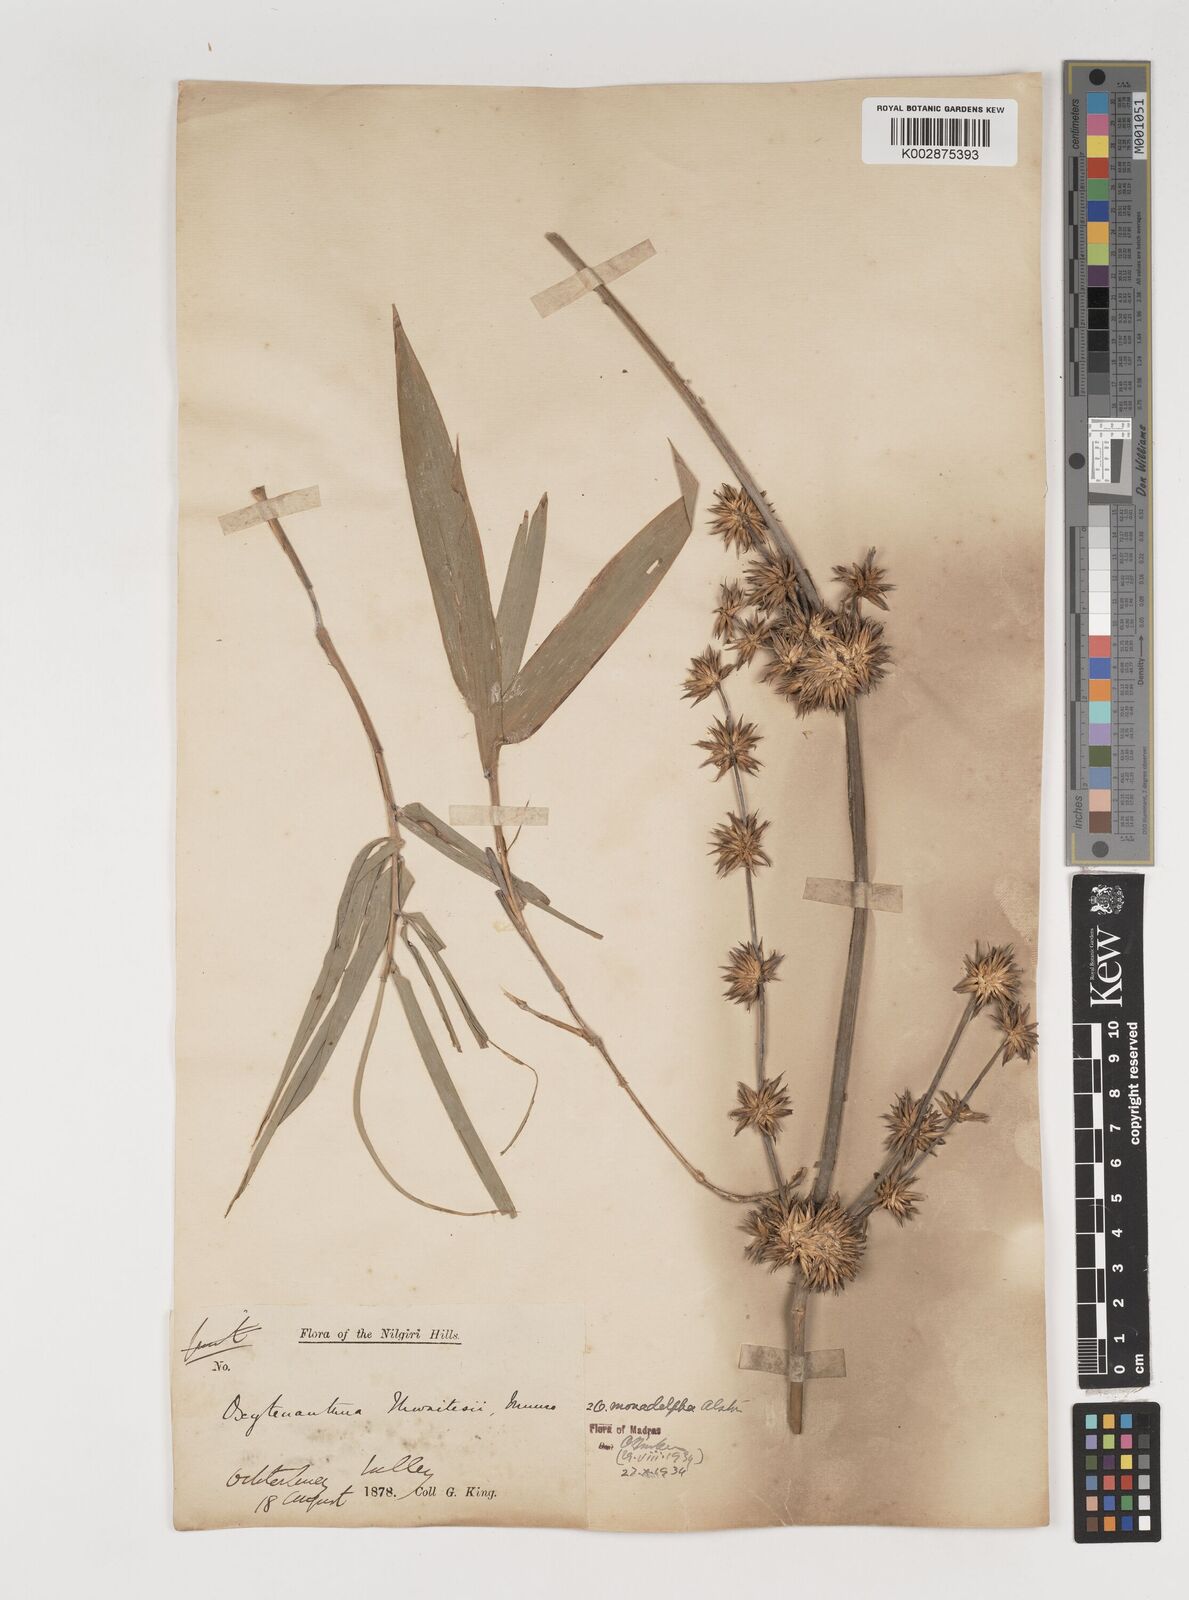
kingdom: Plantae
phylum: Tracheophyta
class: Liliopsida
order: Poales
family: Poaceae
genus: Pseudoxytenanthera
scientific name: Pseudoxytenanthera monadelpha
